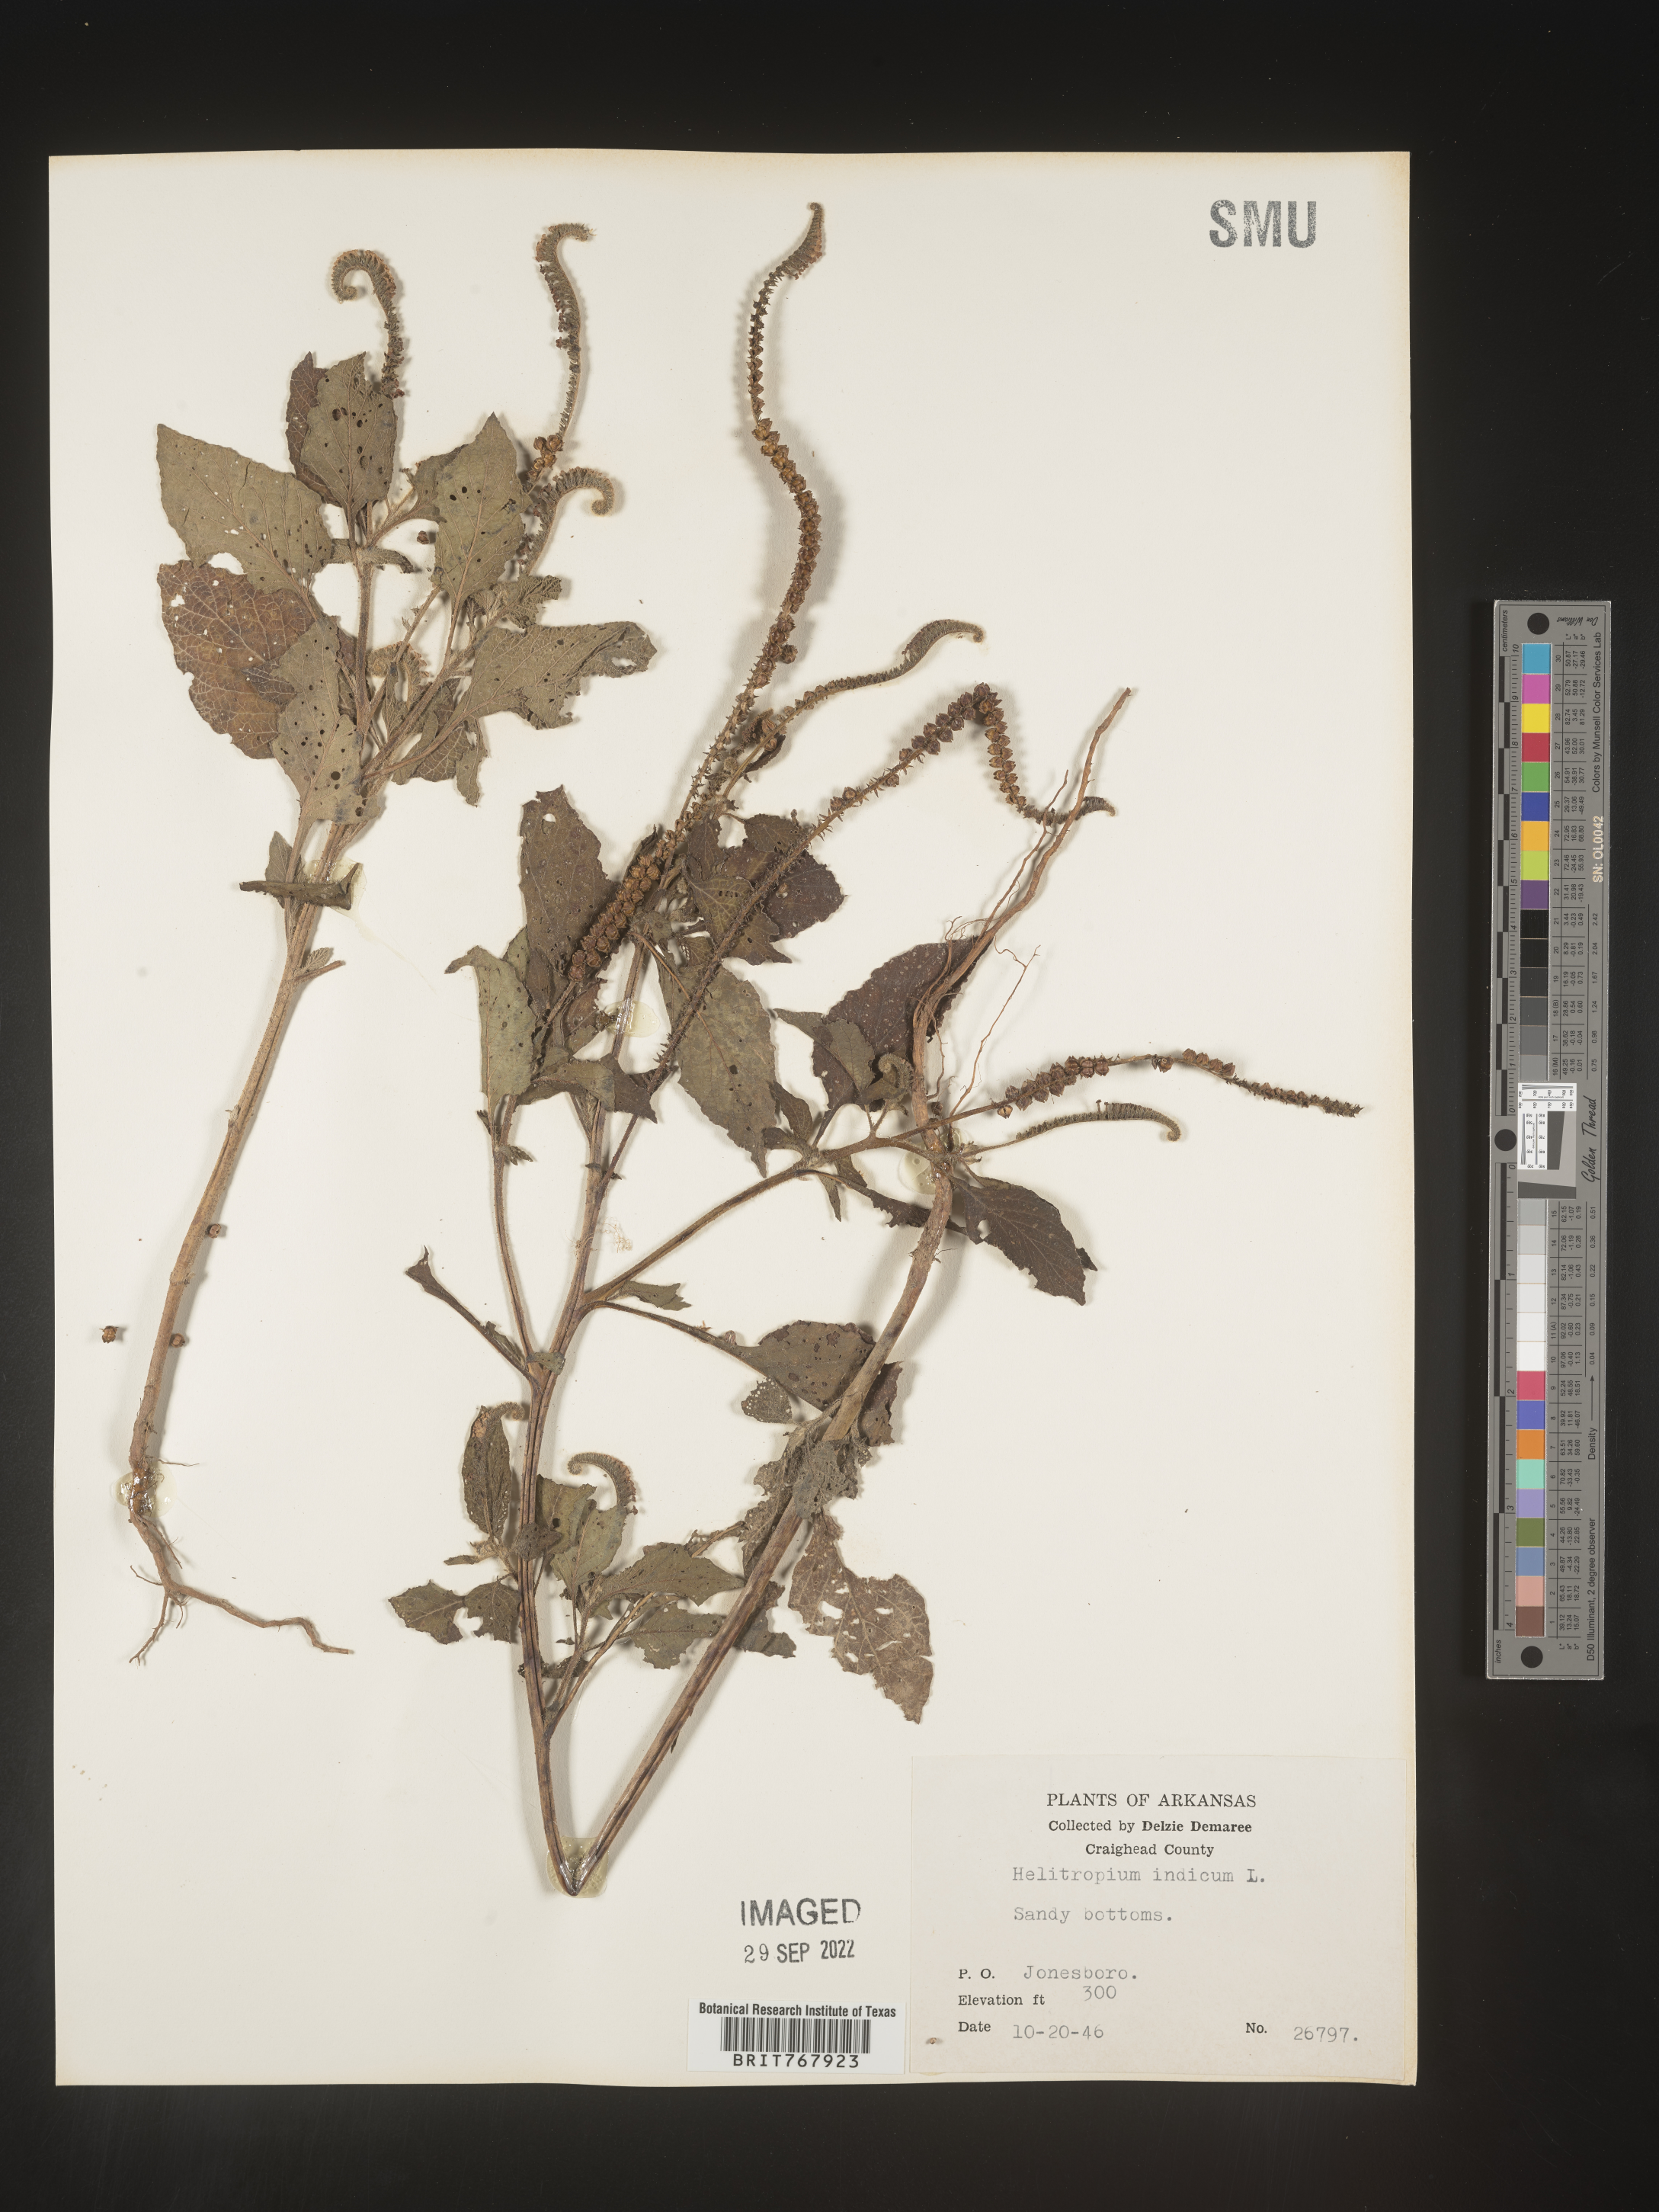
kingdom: Plantae
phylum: Tracheophyta
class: Magnoliopsida
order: Boraginales
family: Heliotropiaceae
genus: Heliotropium
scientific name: Heliotropium indicum
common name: Indian heliotrope
